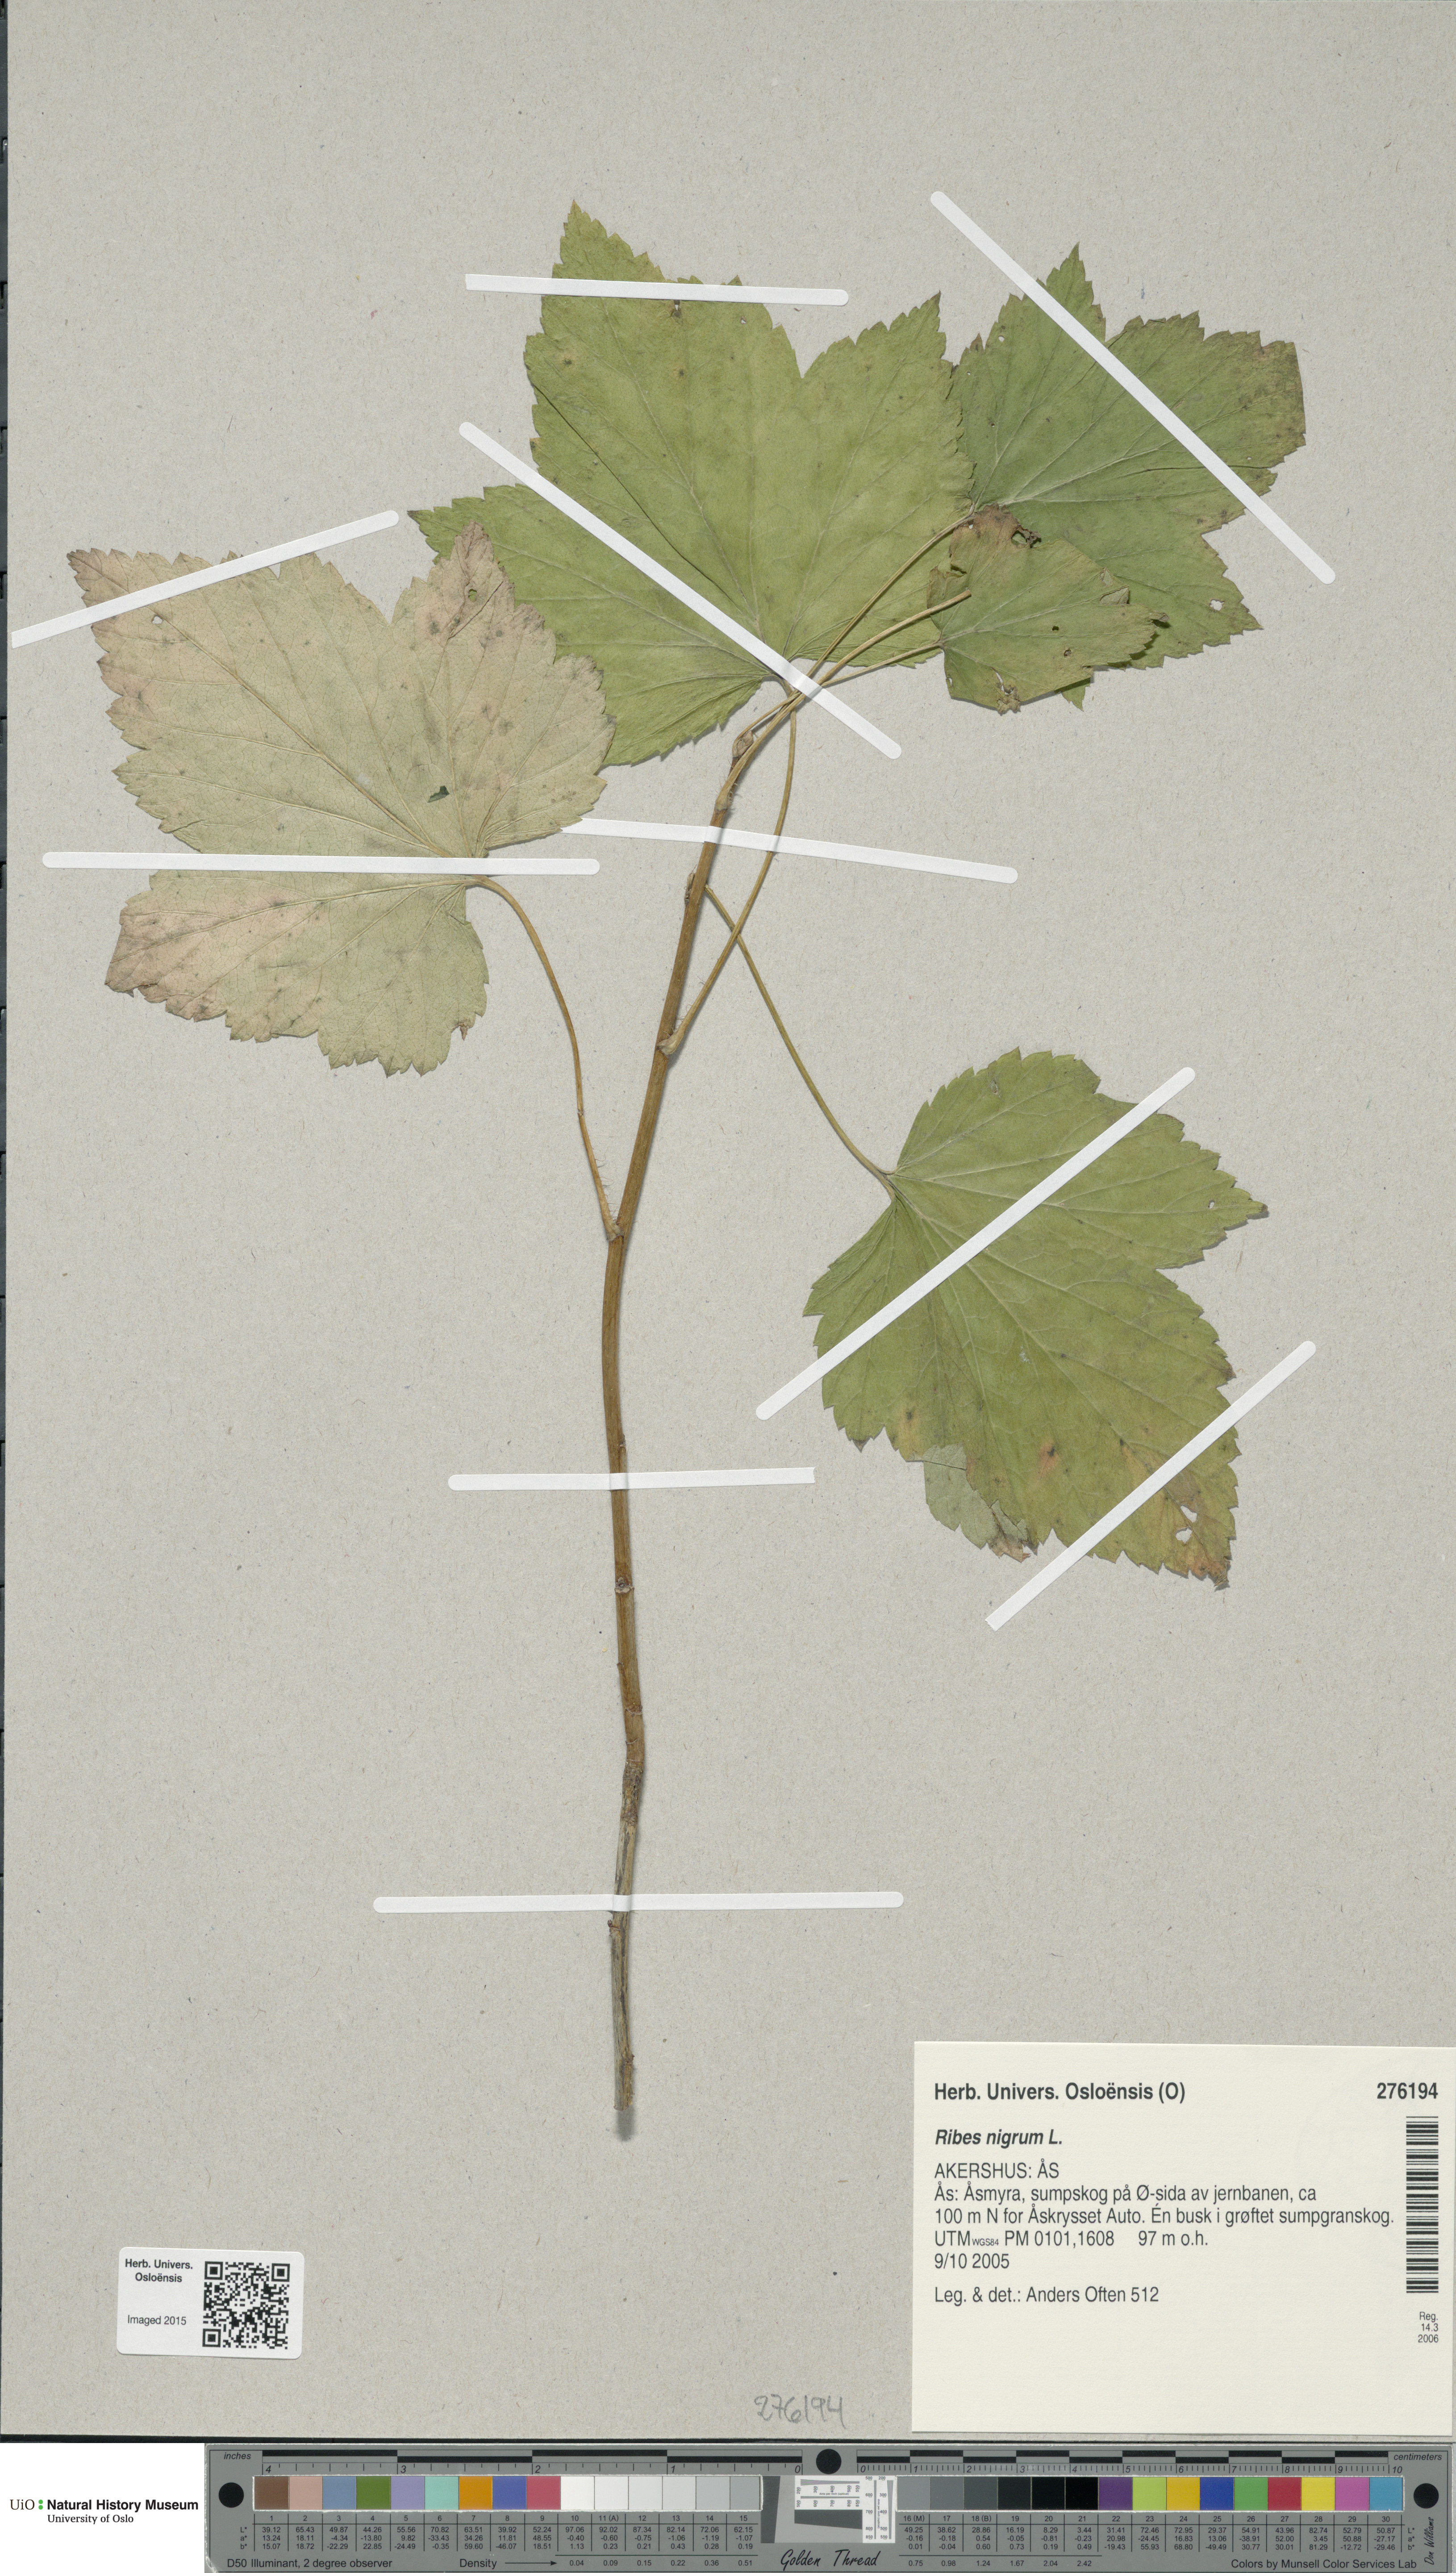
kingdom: Plantae
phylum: Tracheophyta
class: Magnoliopsida
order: Saxifragales
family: Grossulariaceae
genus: Ribes
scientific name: Ribes nigrum
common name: Black currant
